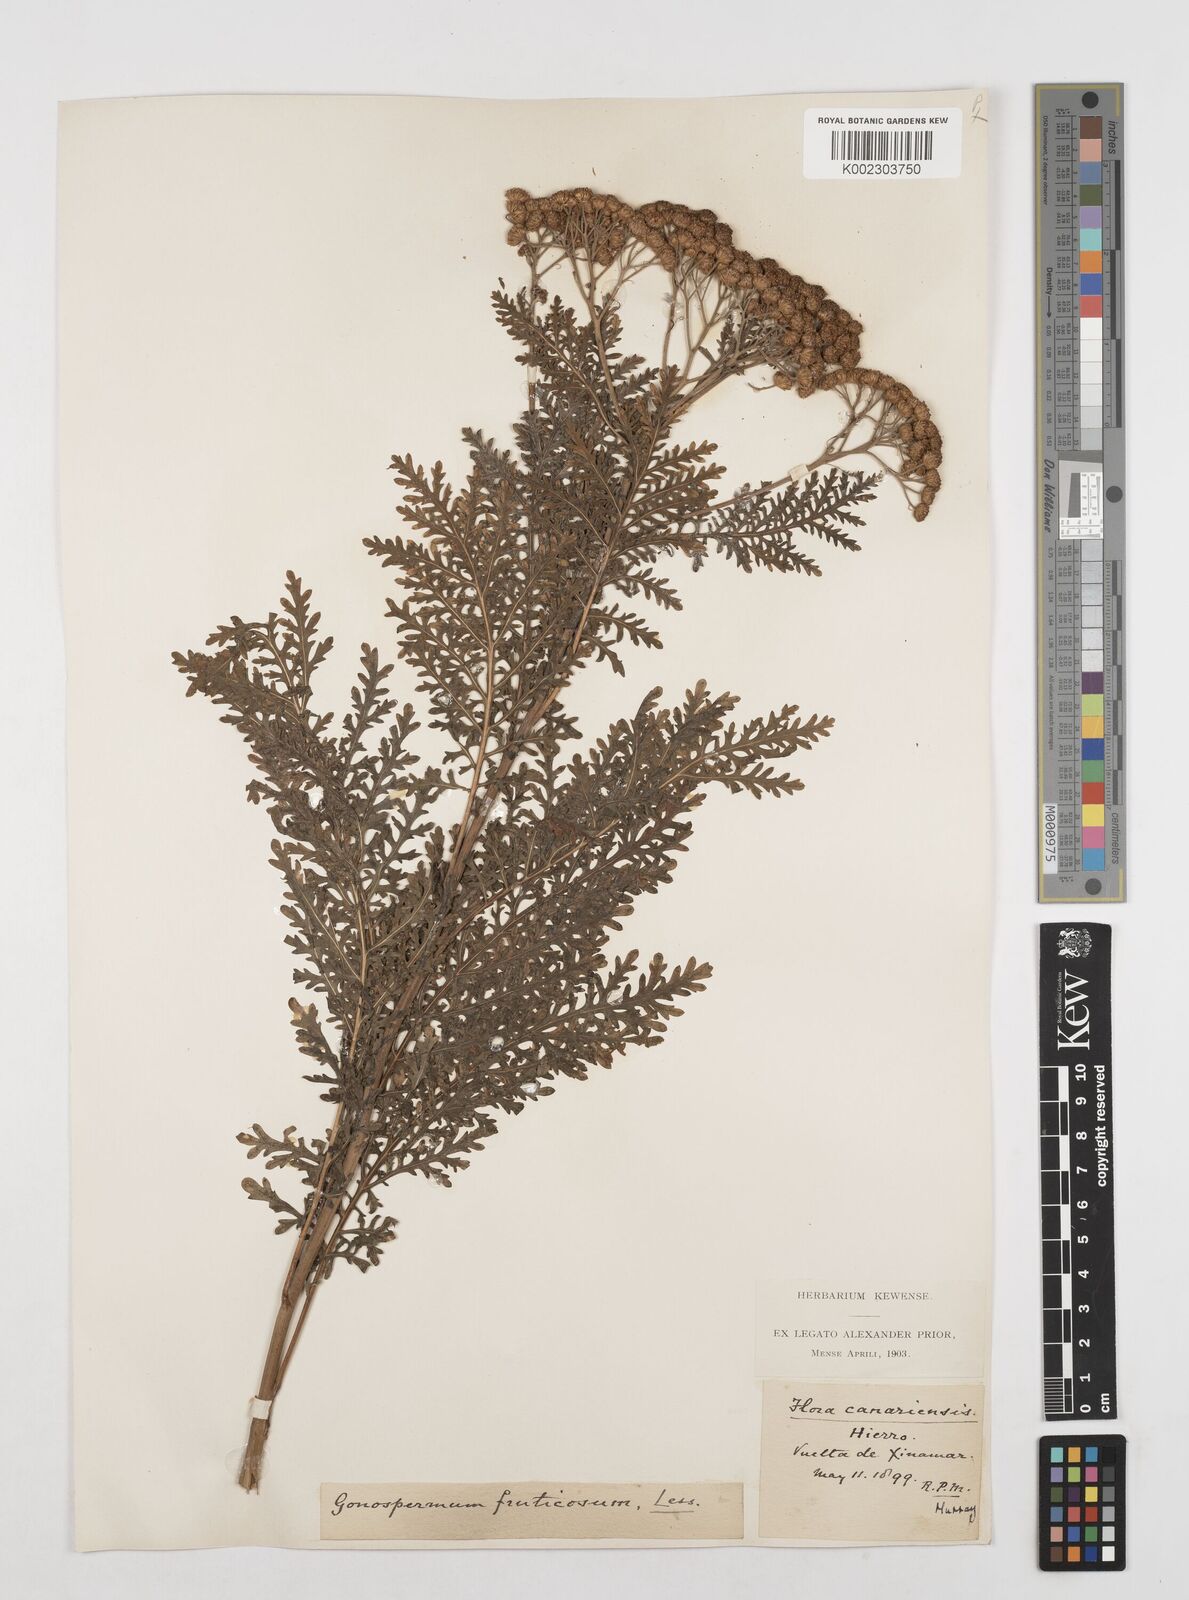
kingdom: Plantae
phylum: Tracheophyta
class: Magnoliopsida
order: Asterales
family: Asteraceae
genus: Gonospermum
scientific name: Gonospermum fruticosum
